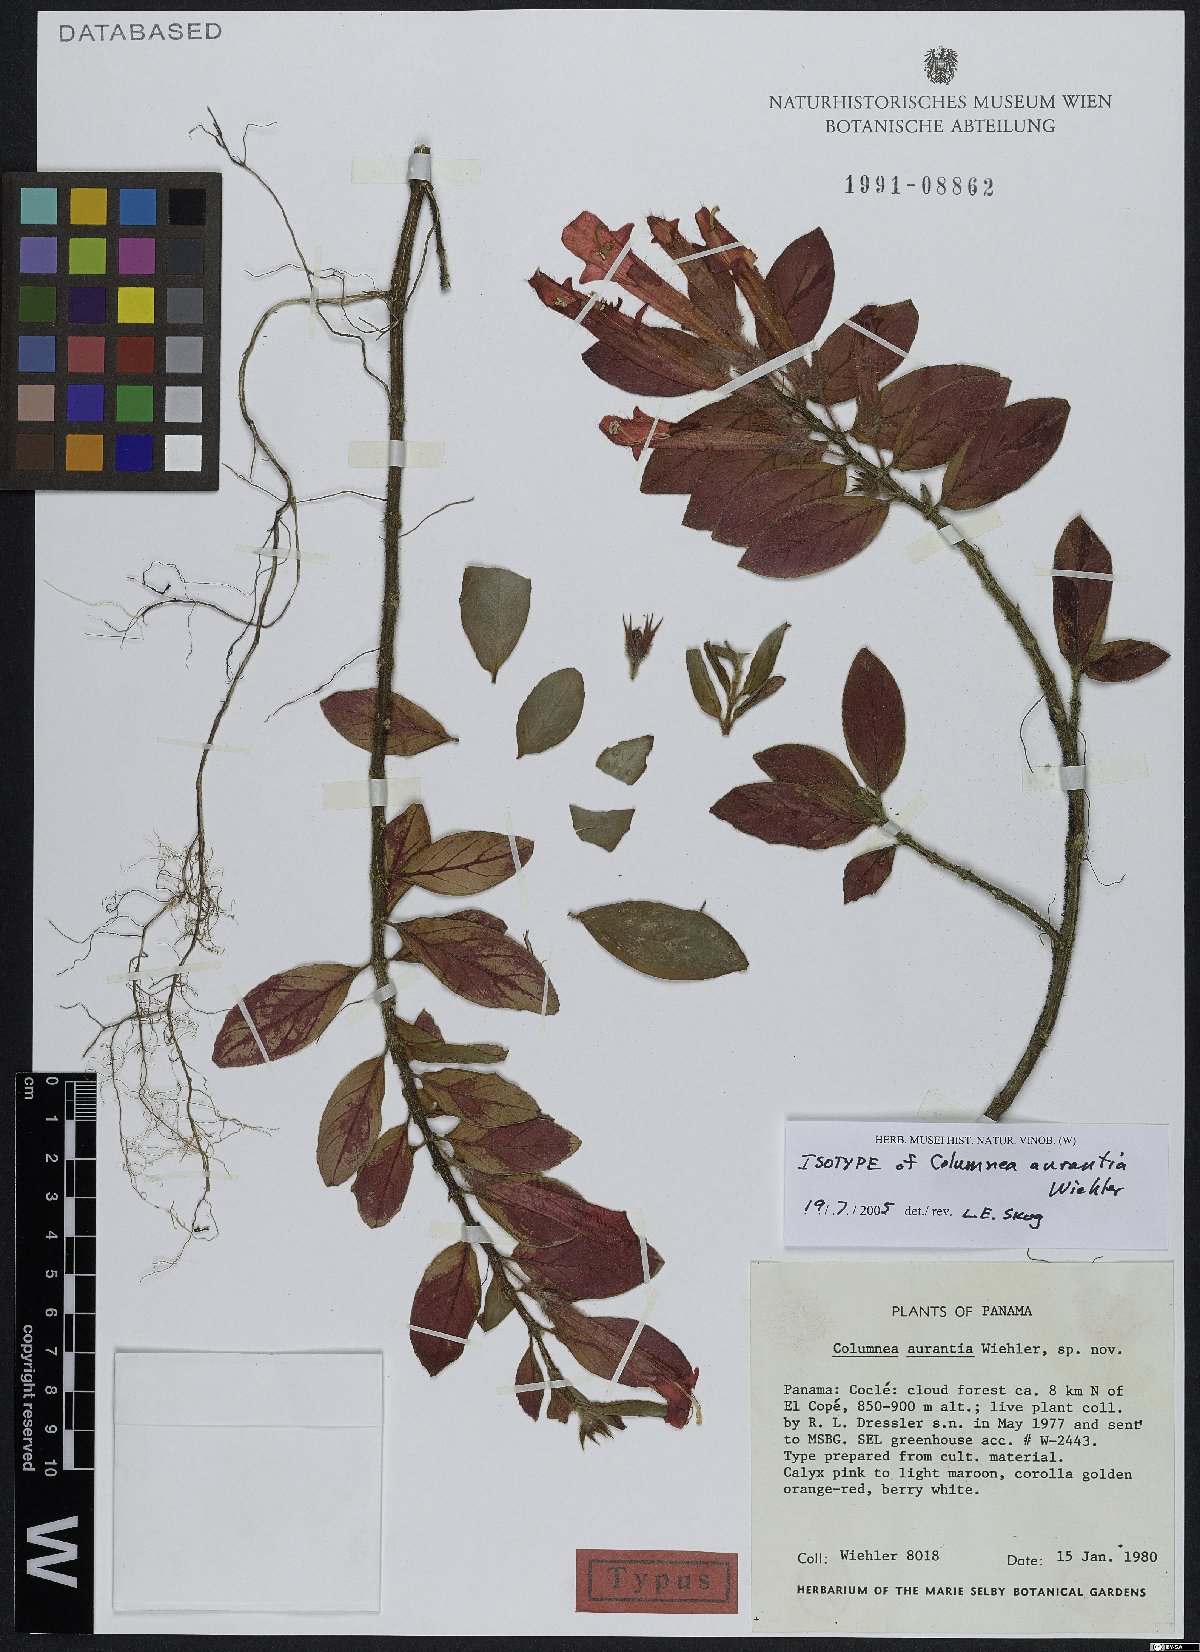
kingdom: Plantae
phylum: Tracheophyta
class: Magnoliopsida
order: Lamiales
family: Gesneriaceae
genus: Columnea
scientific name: Columnea aurantia
